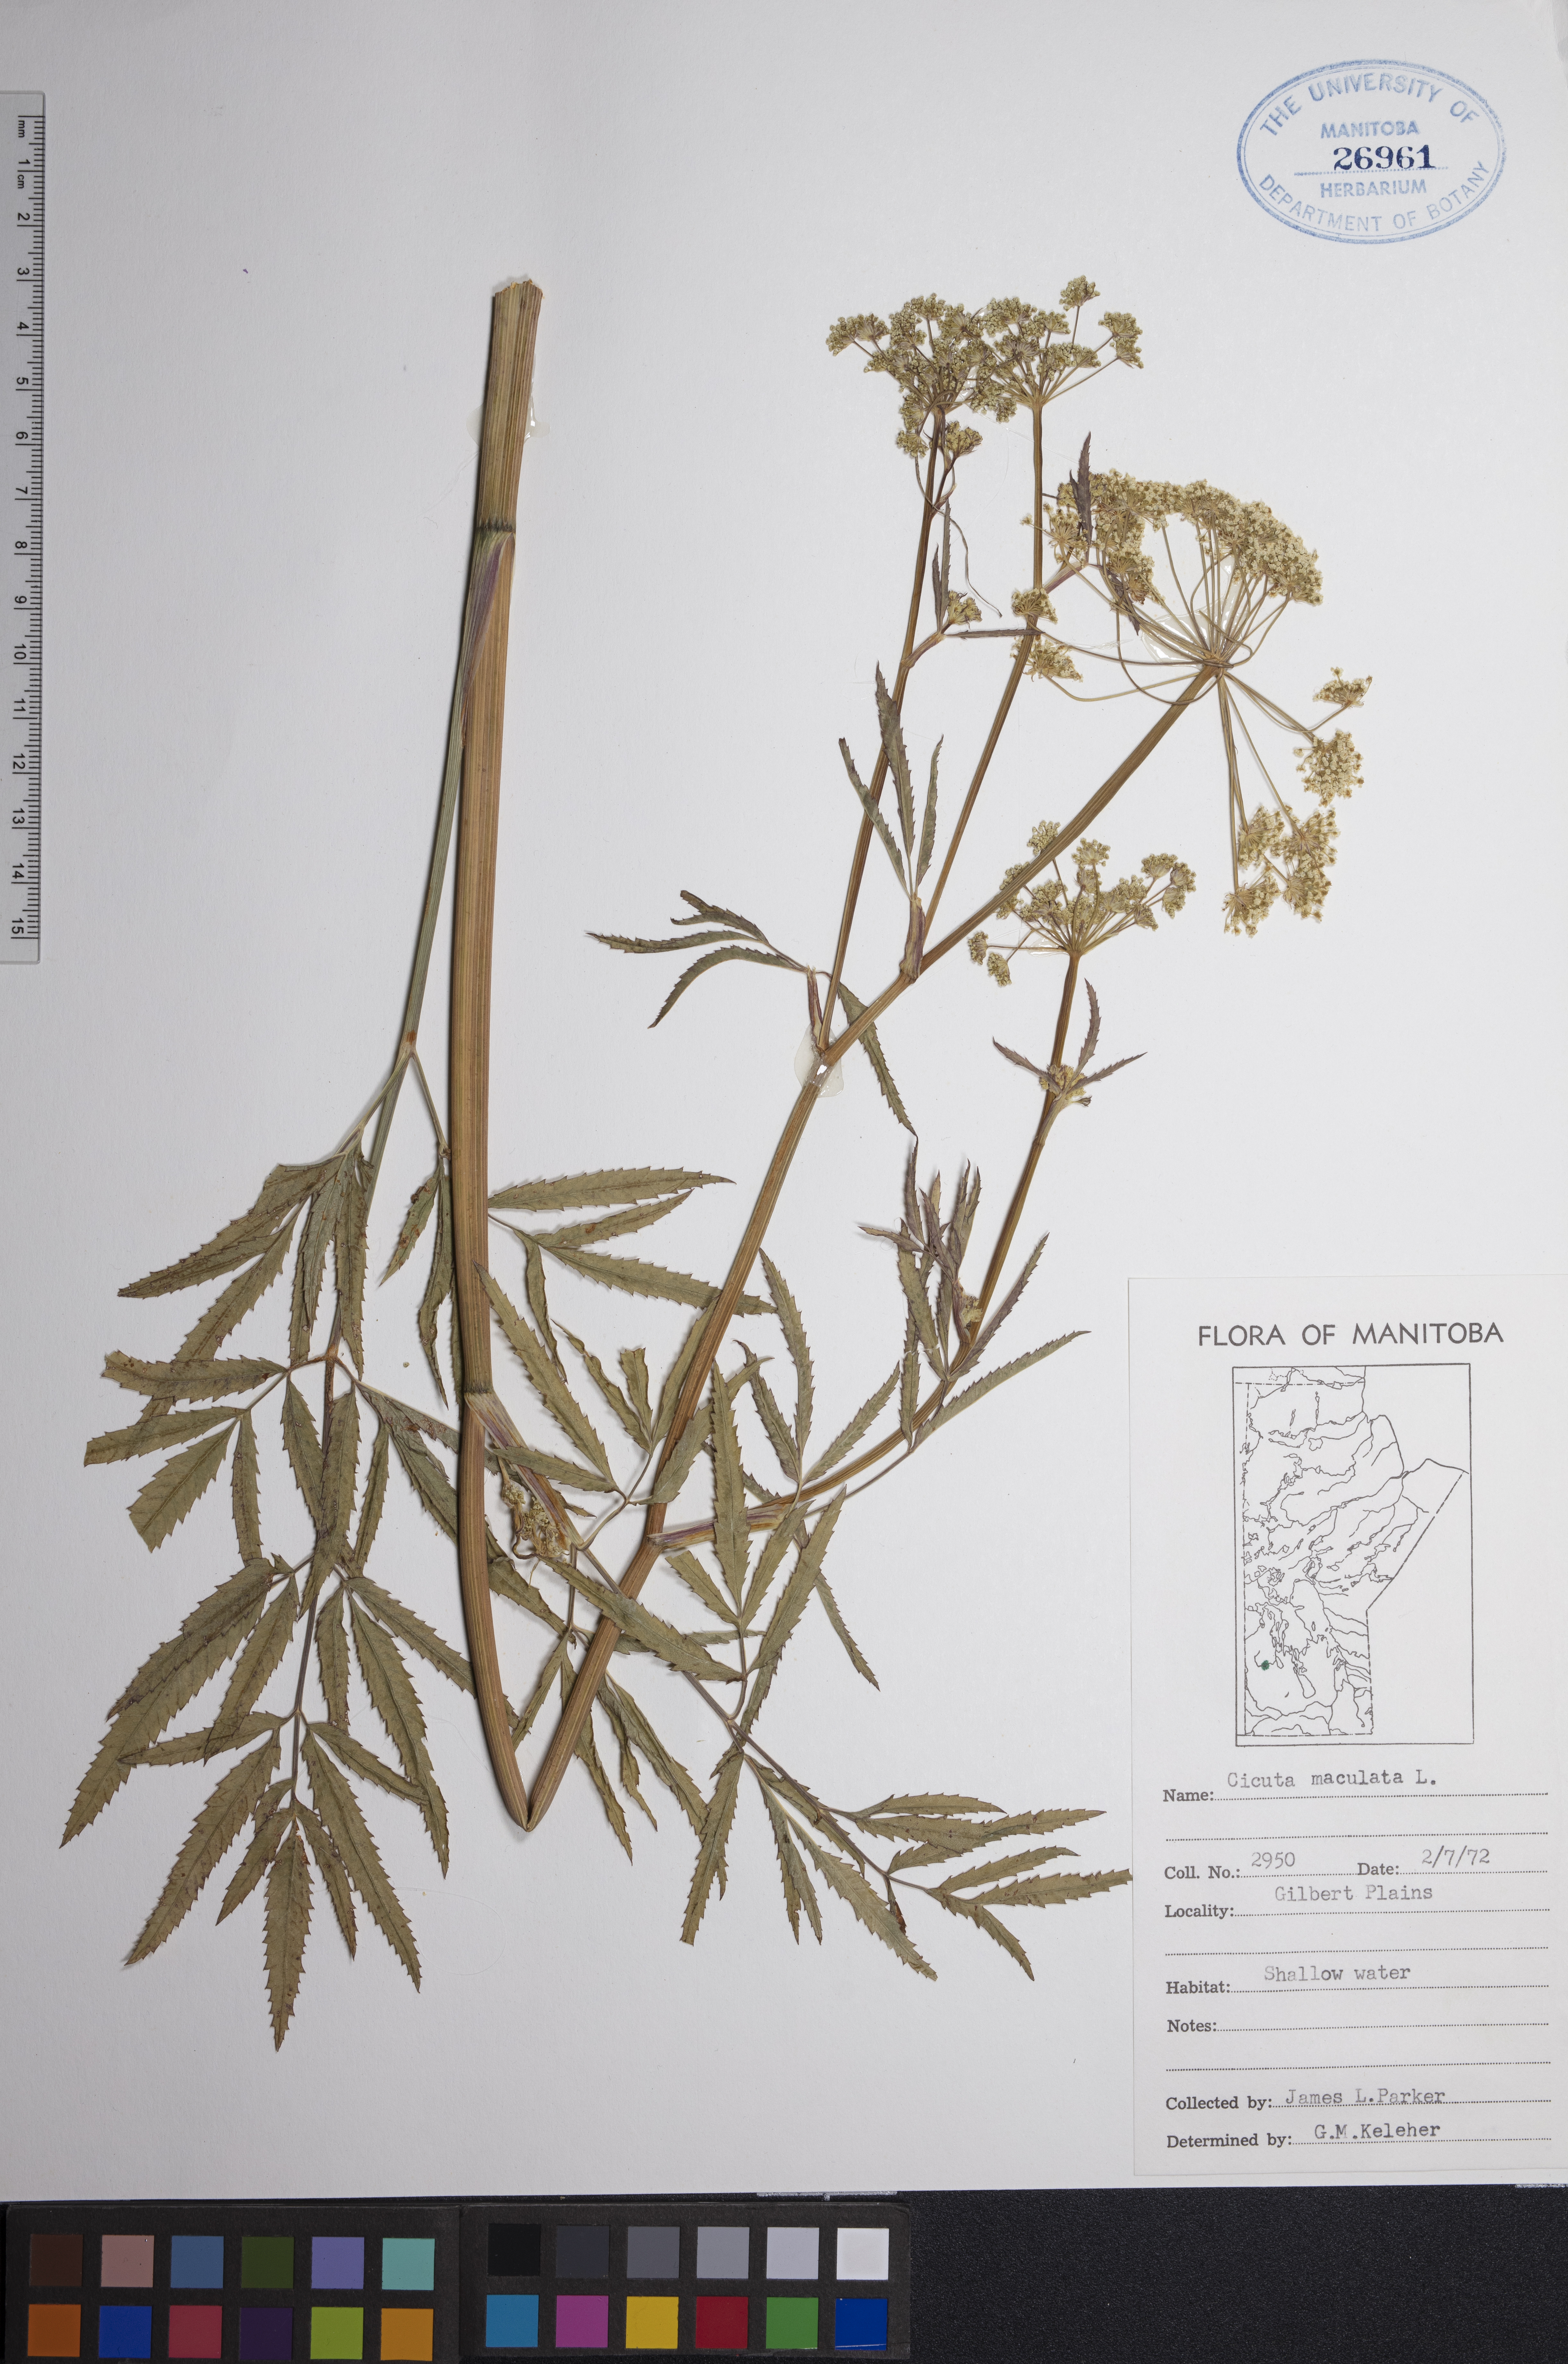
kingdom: Plantae
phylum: Tracheophyta
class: Magnoliopsida
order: Apiales
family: Apiaceae
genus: Cicuta
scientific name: Cicuta maculata
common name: Spotted cowbane
